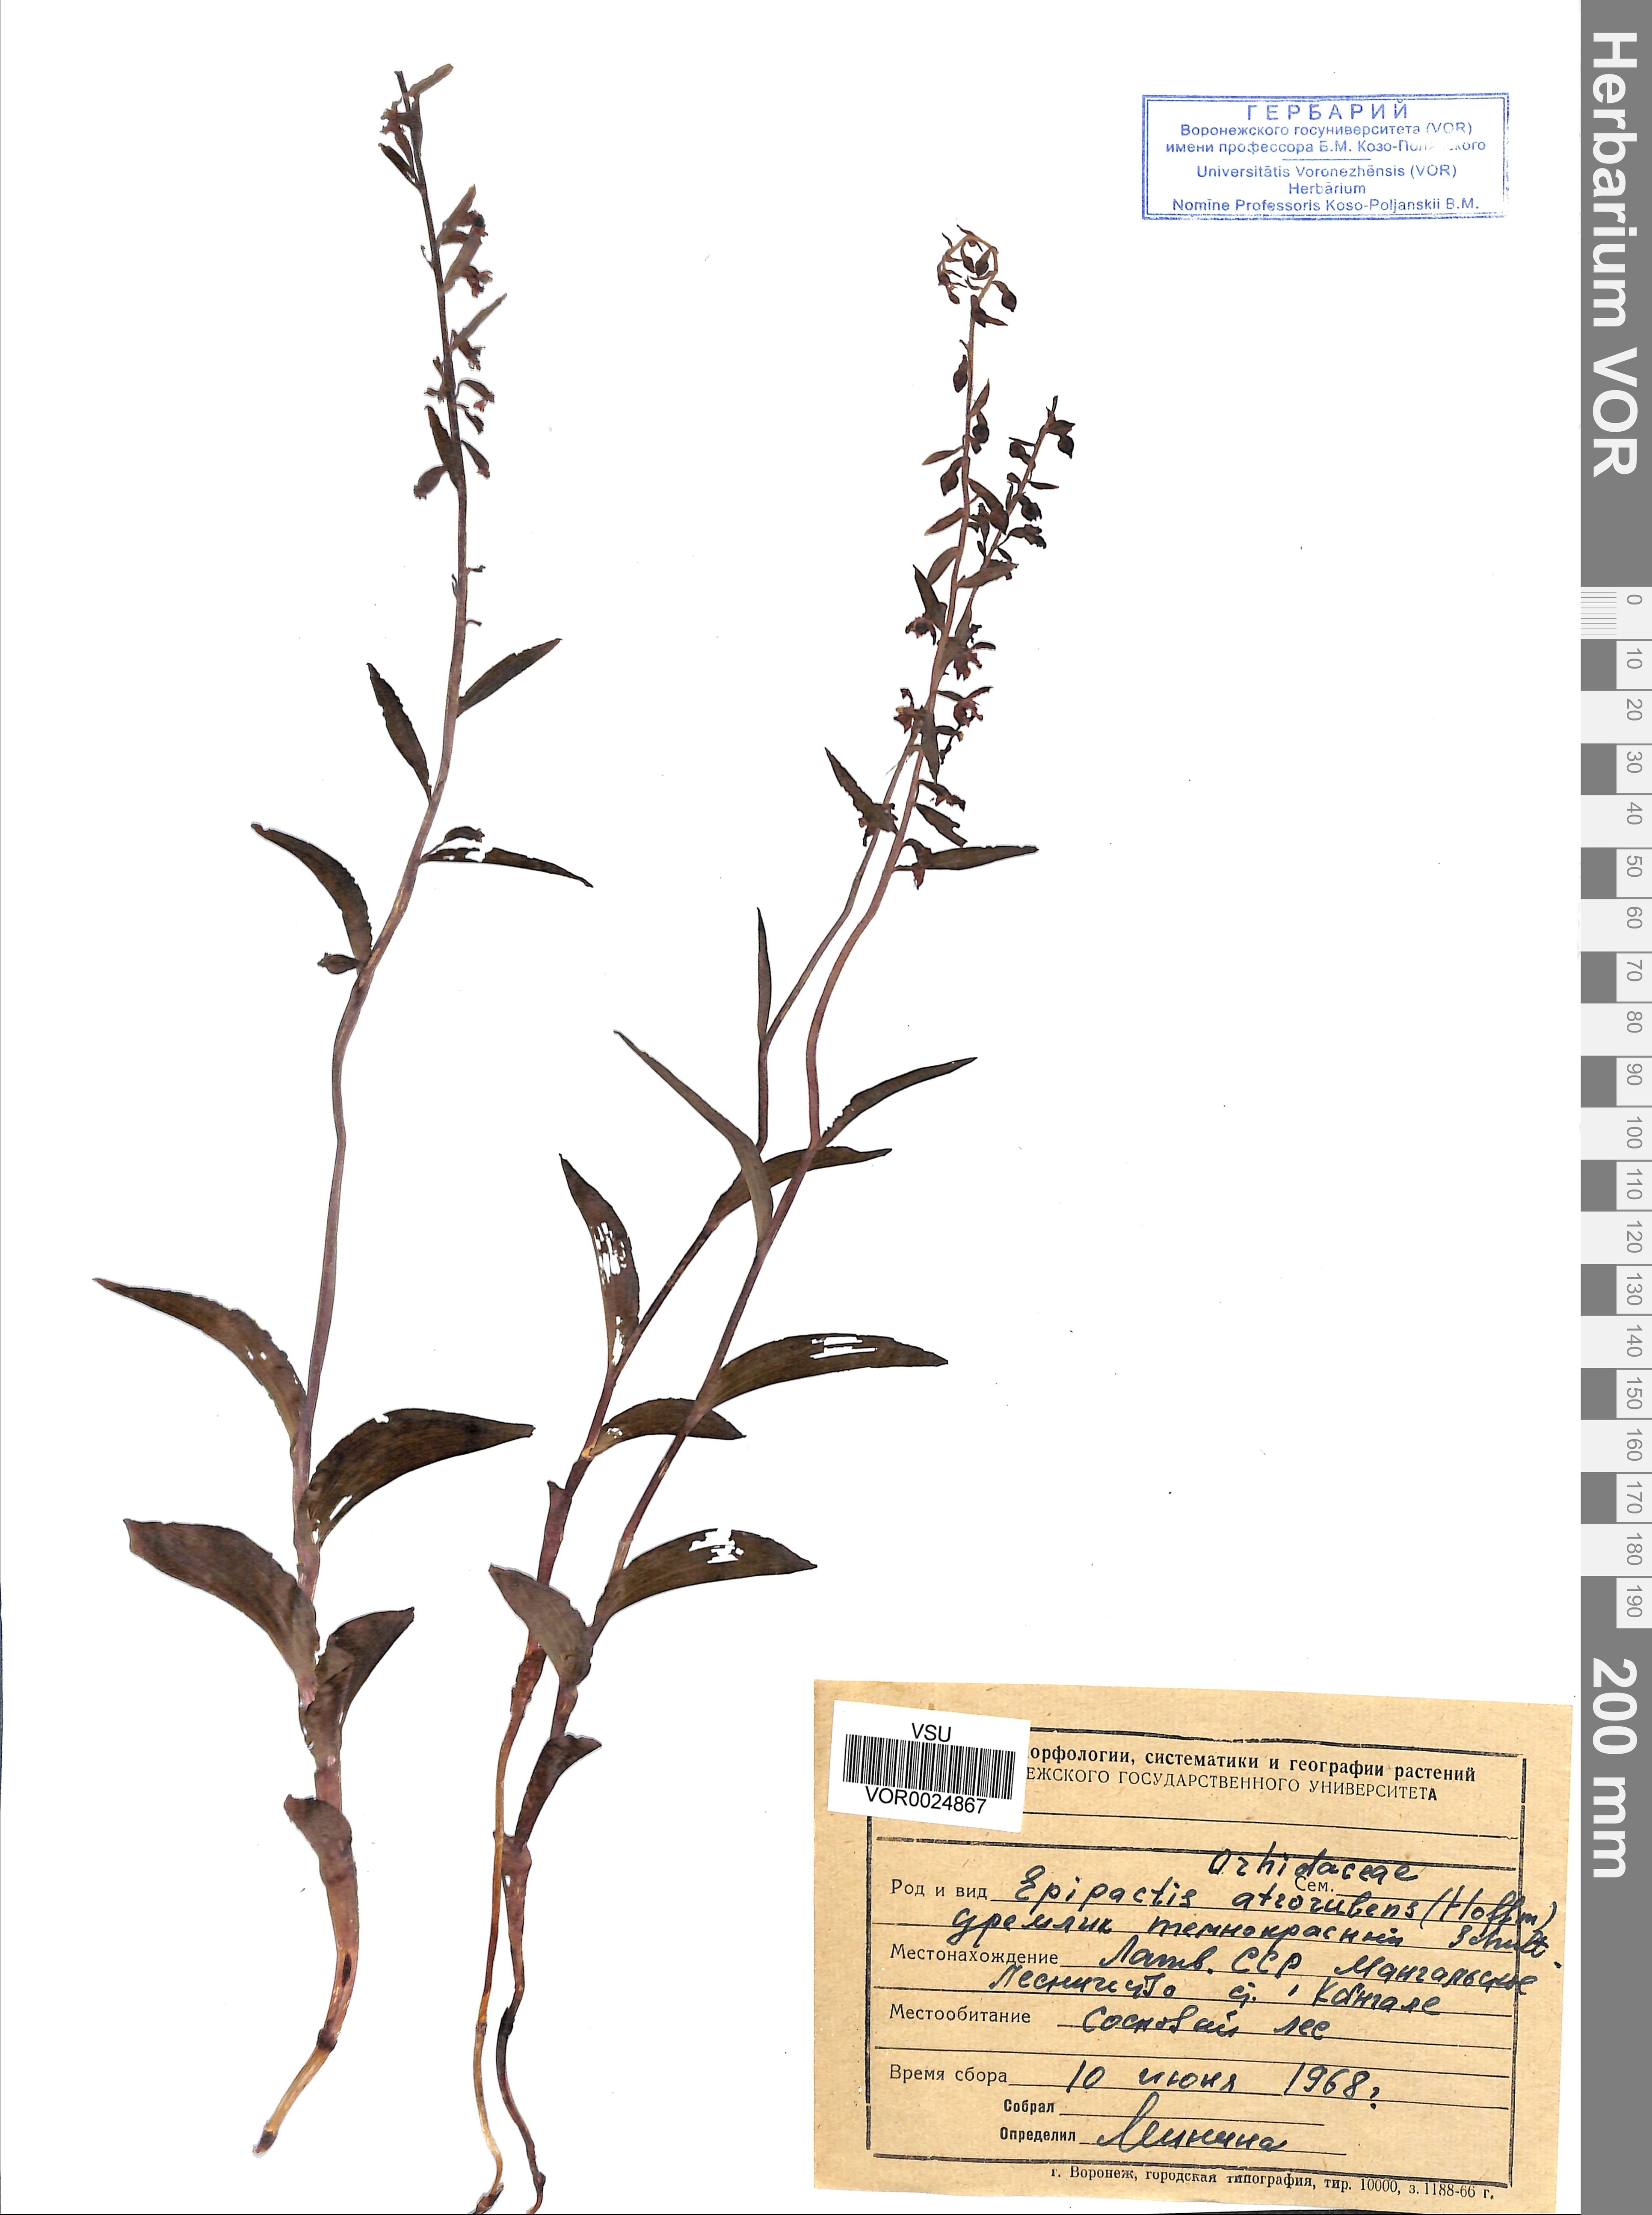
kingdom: Plantae
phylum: Tracheophyta
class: Liliopsida
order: Asparagales
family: Orchidaceae
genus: Epipactis
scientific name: Epipactis atrorubens
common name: Dark-red helleborine
